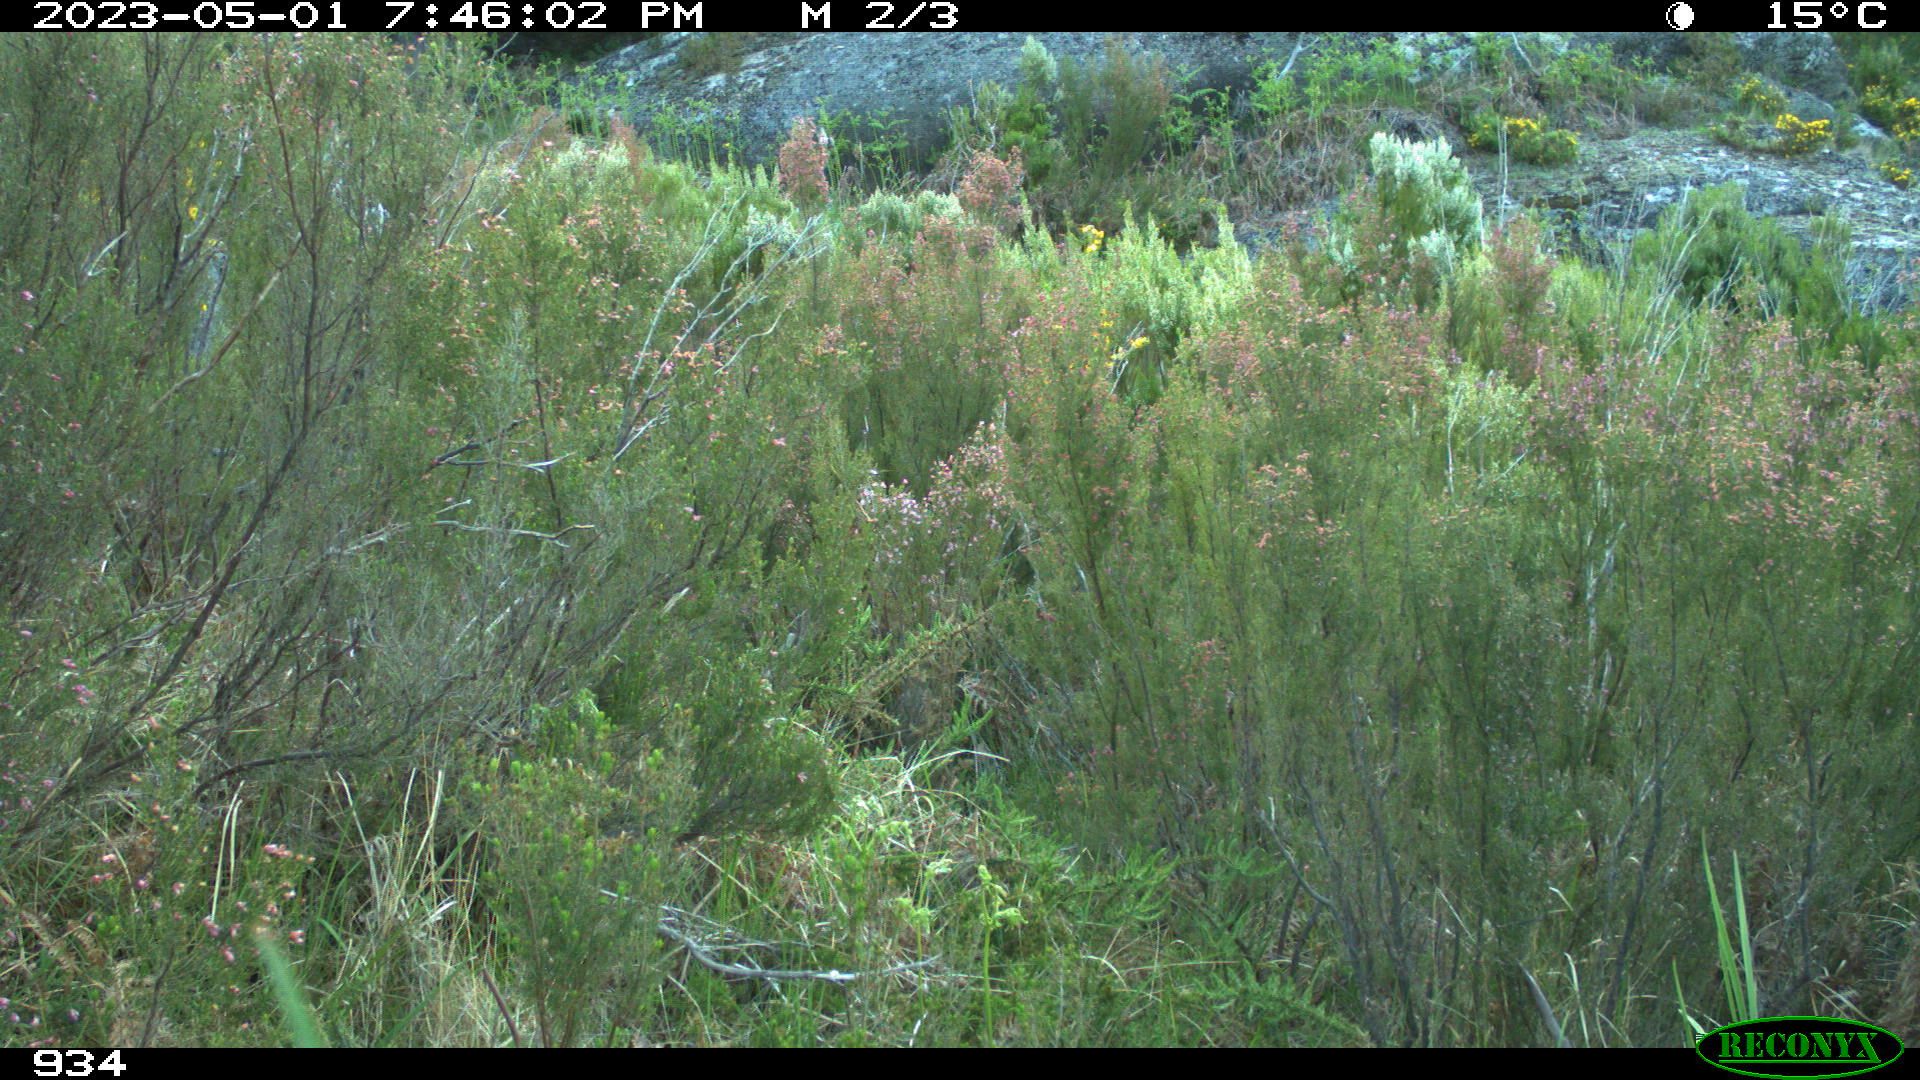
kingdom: Animalia
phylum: Chordata
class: Mammalia
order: Artiodactyla
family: Bovidae
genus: Capra
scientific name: Capra pyrenaica
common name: Spanish ibex
